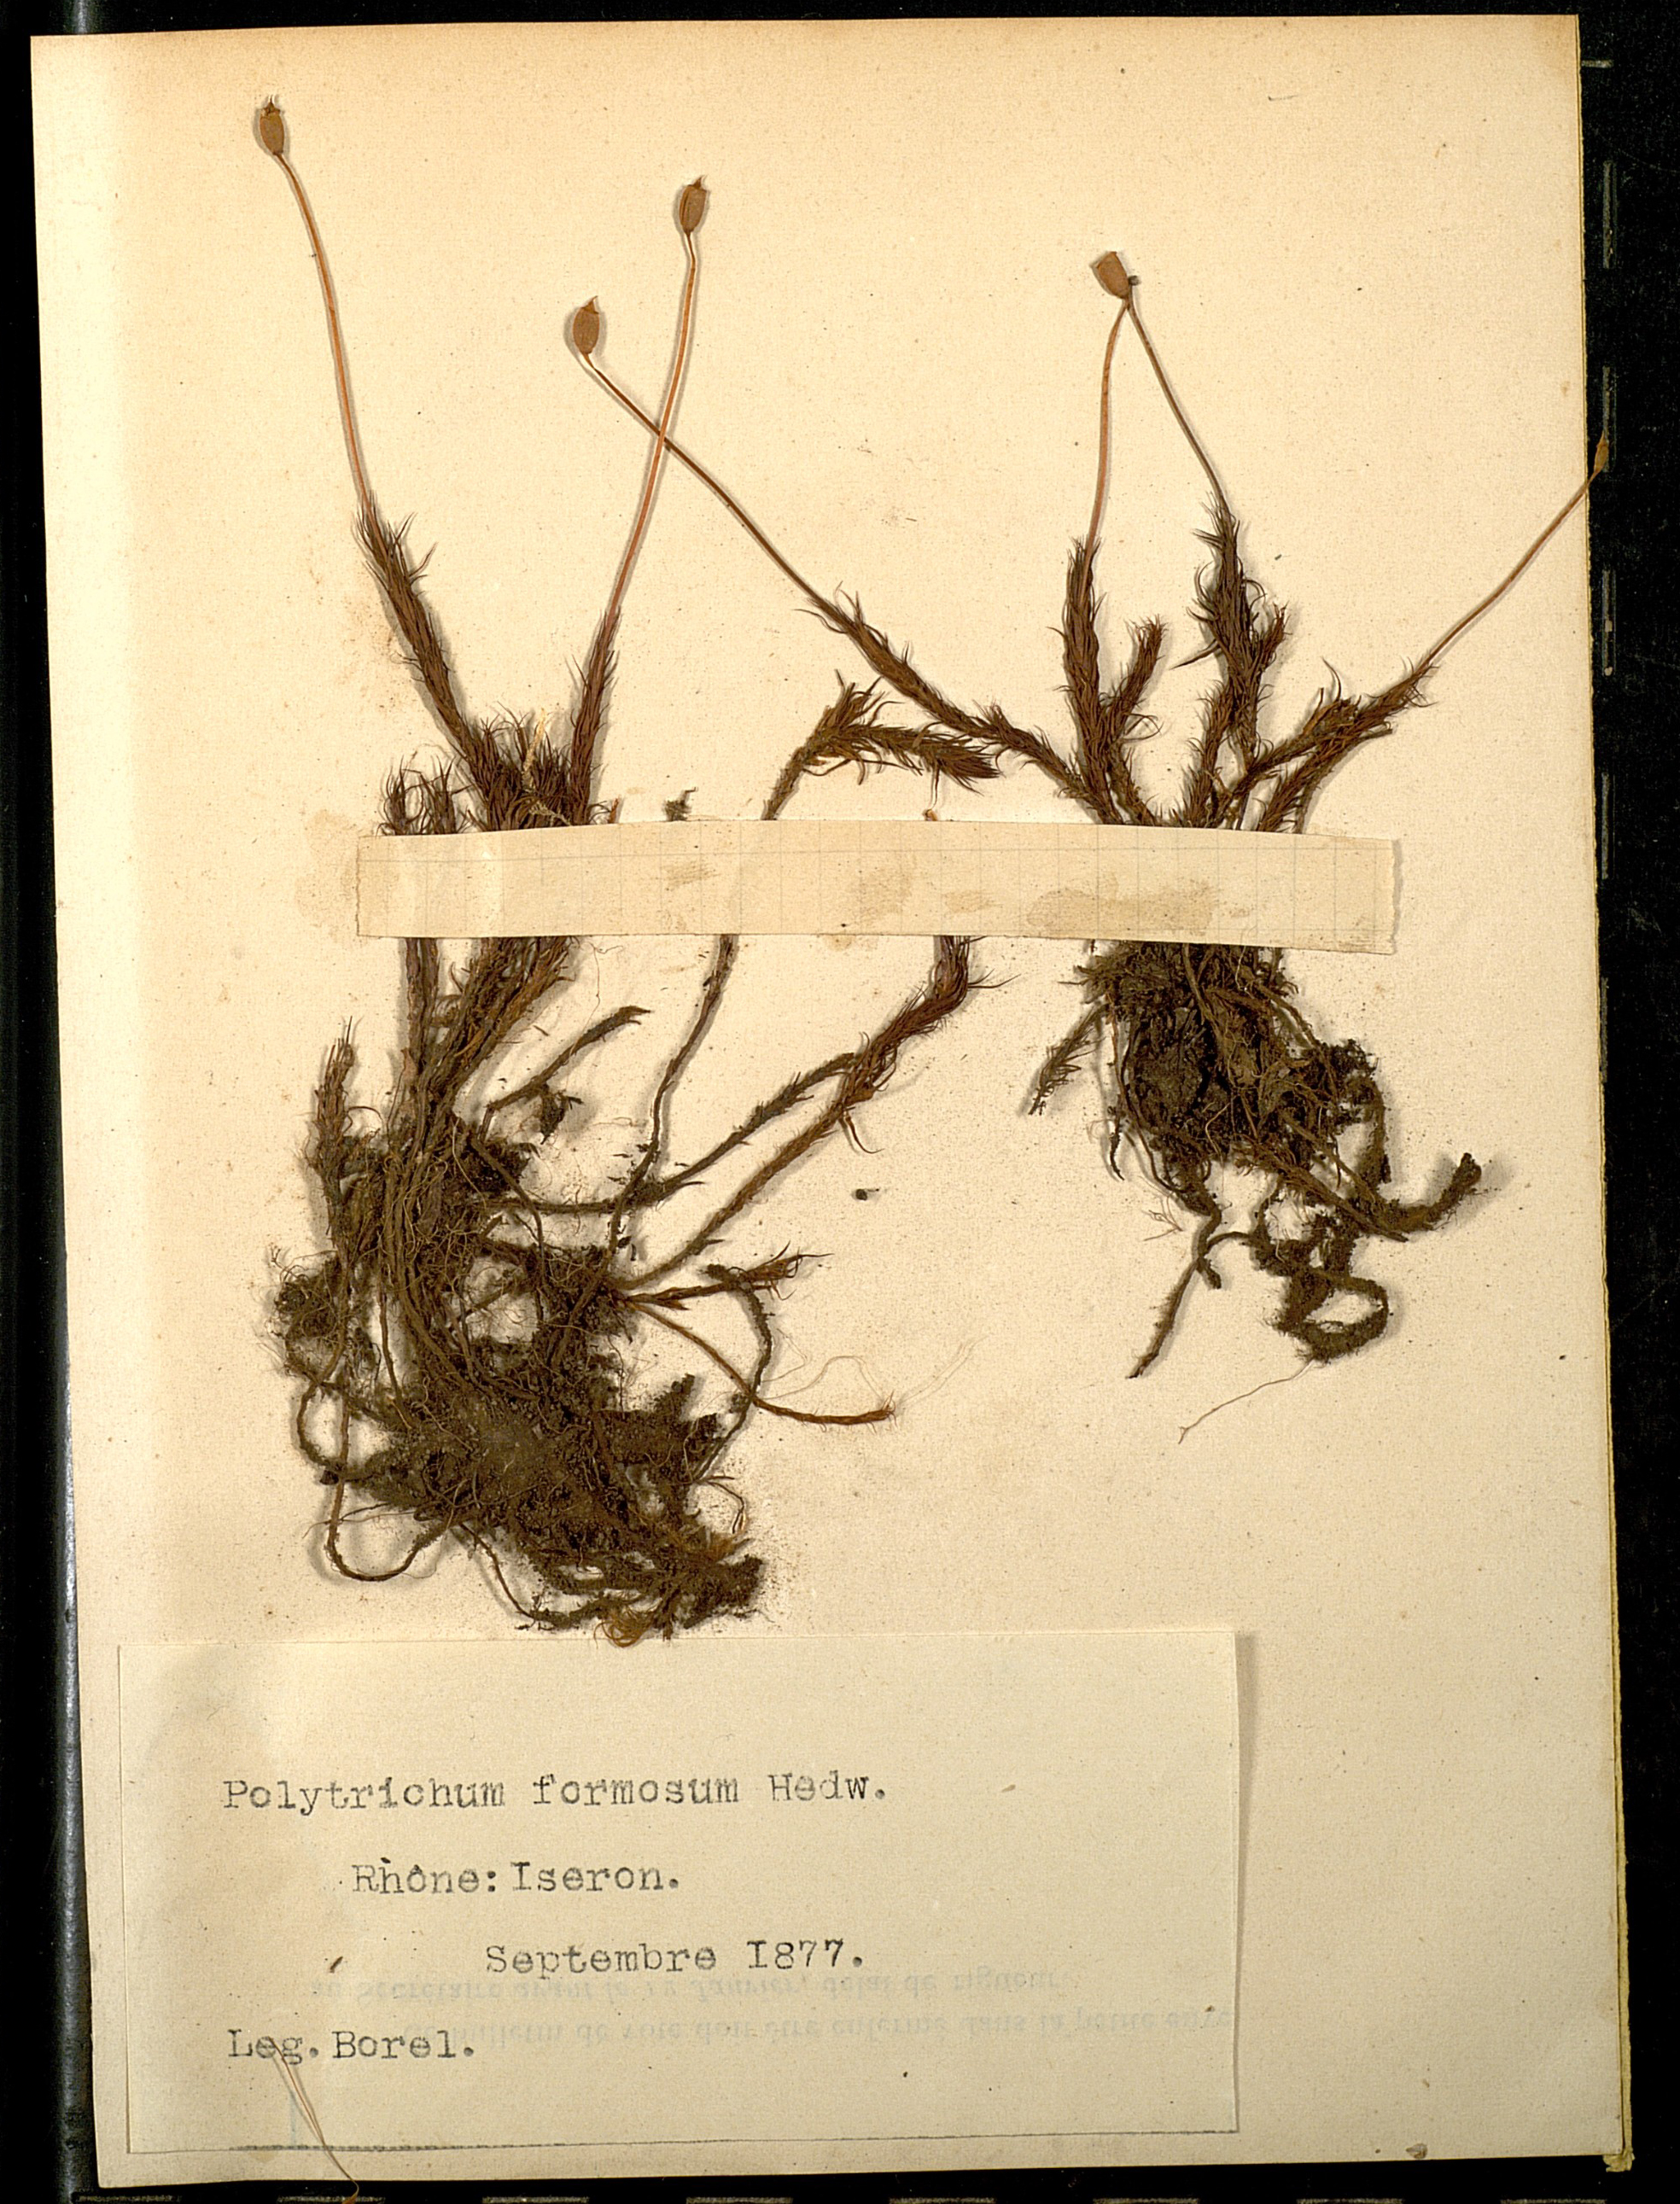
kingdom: Plantae
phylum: Bryophyta
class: Polytrichopsida
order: Polytrichales
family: Polytrichaceae
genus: Polytrichum
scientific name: Polytrichum formosum
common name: Bank haircap moss
